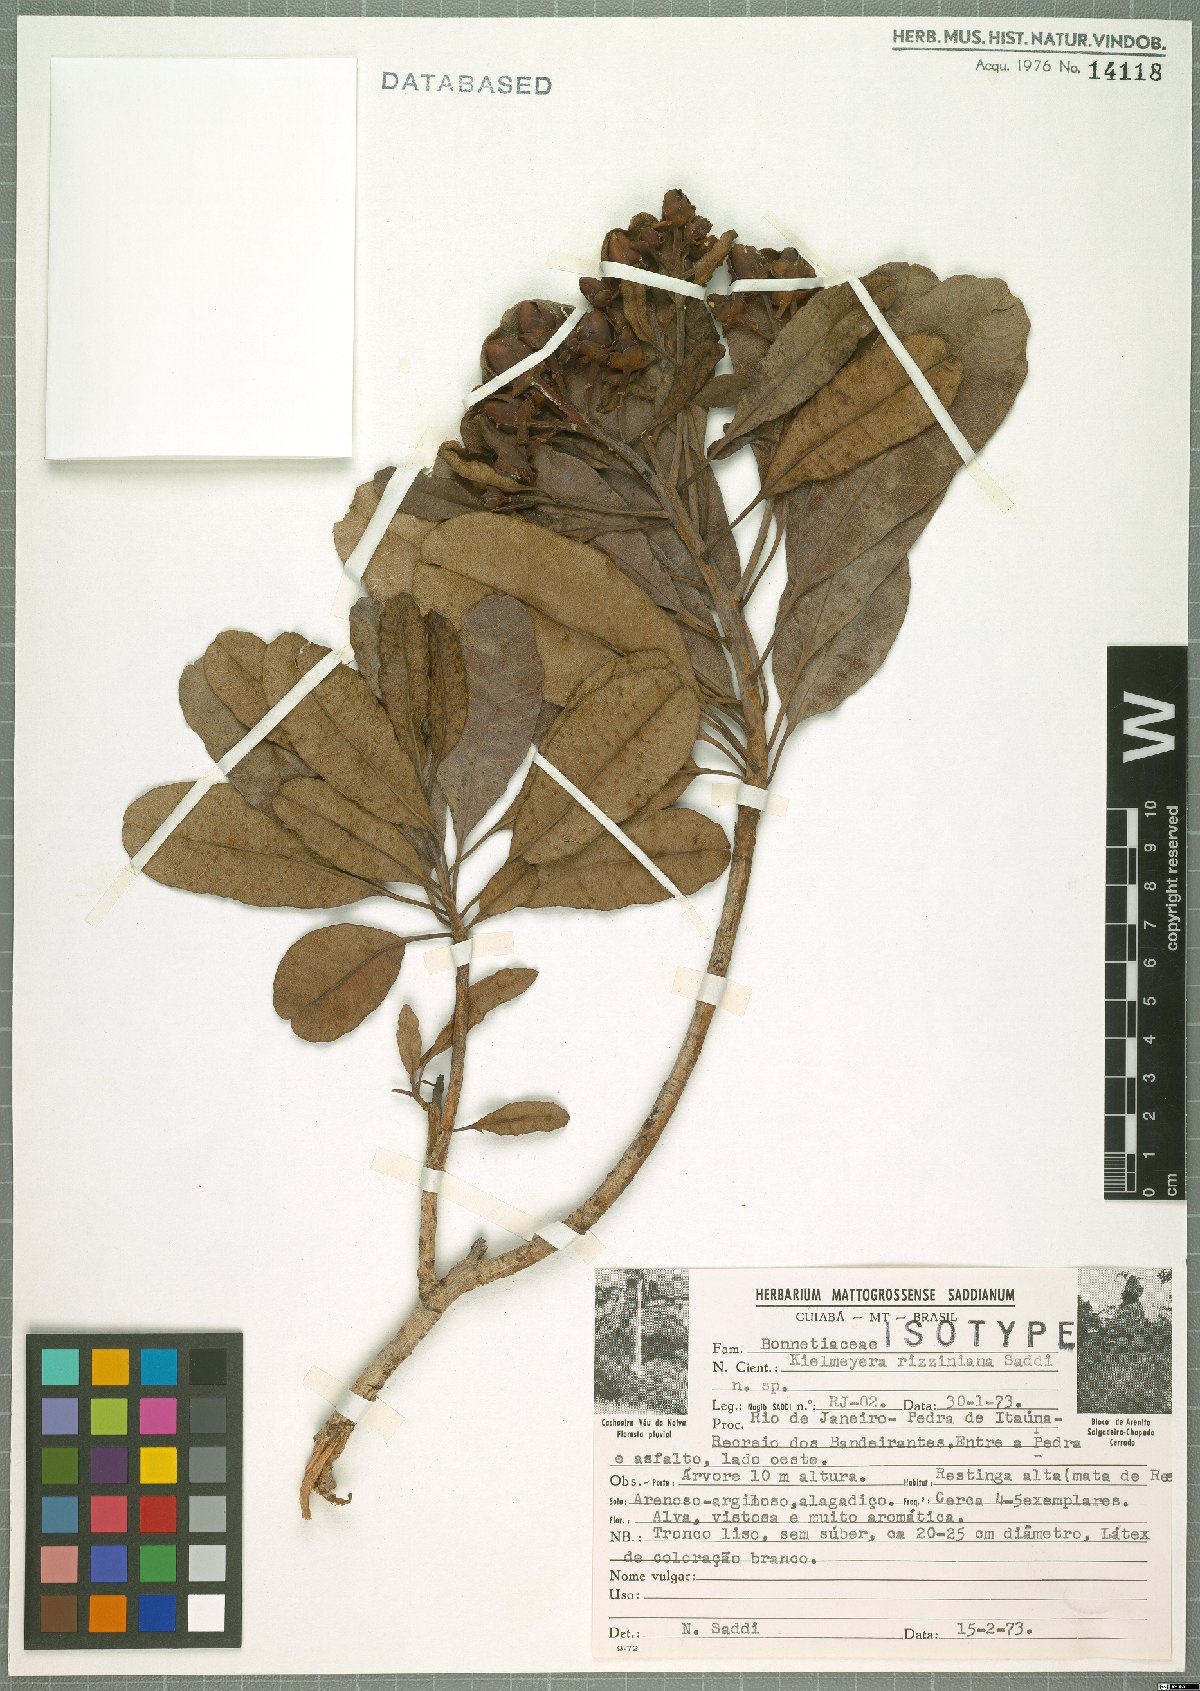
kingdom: Plantae
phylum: Tracheophyta
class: Magnoliopsida
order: Malpighiales
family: Calophyllaceae
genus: Kielmeyera
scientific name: Kielmeyera rizziniana
